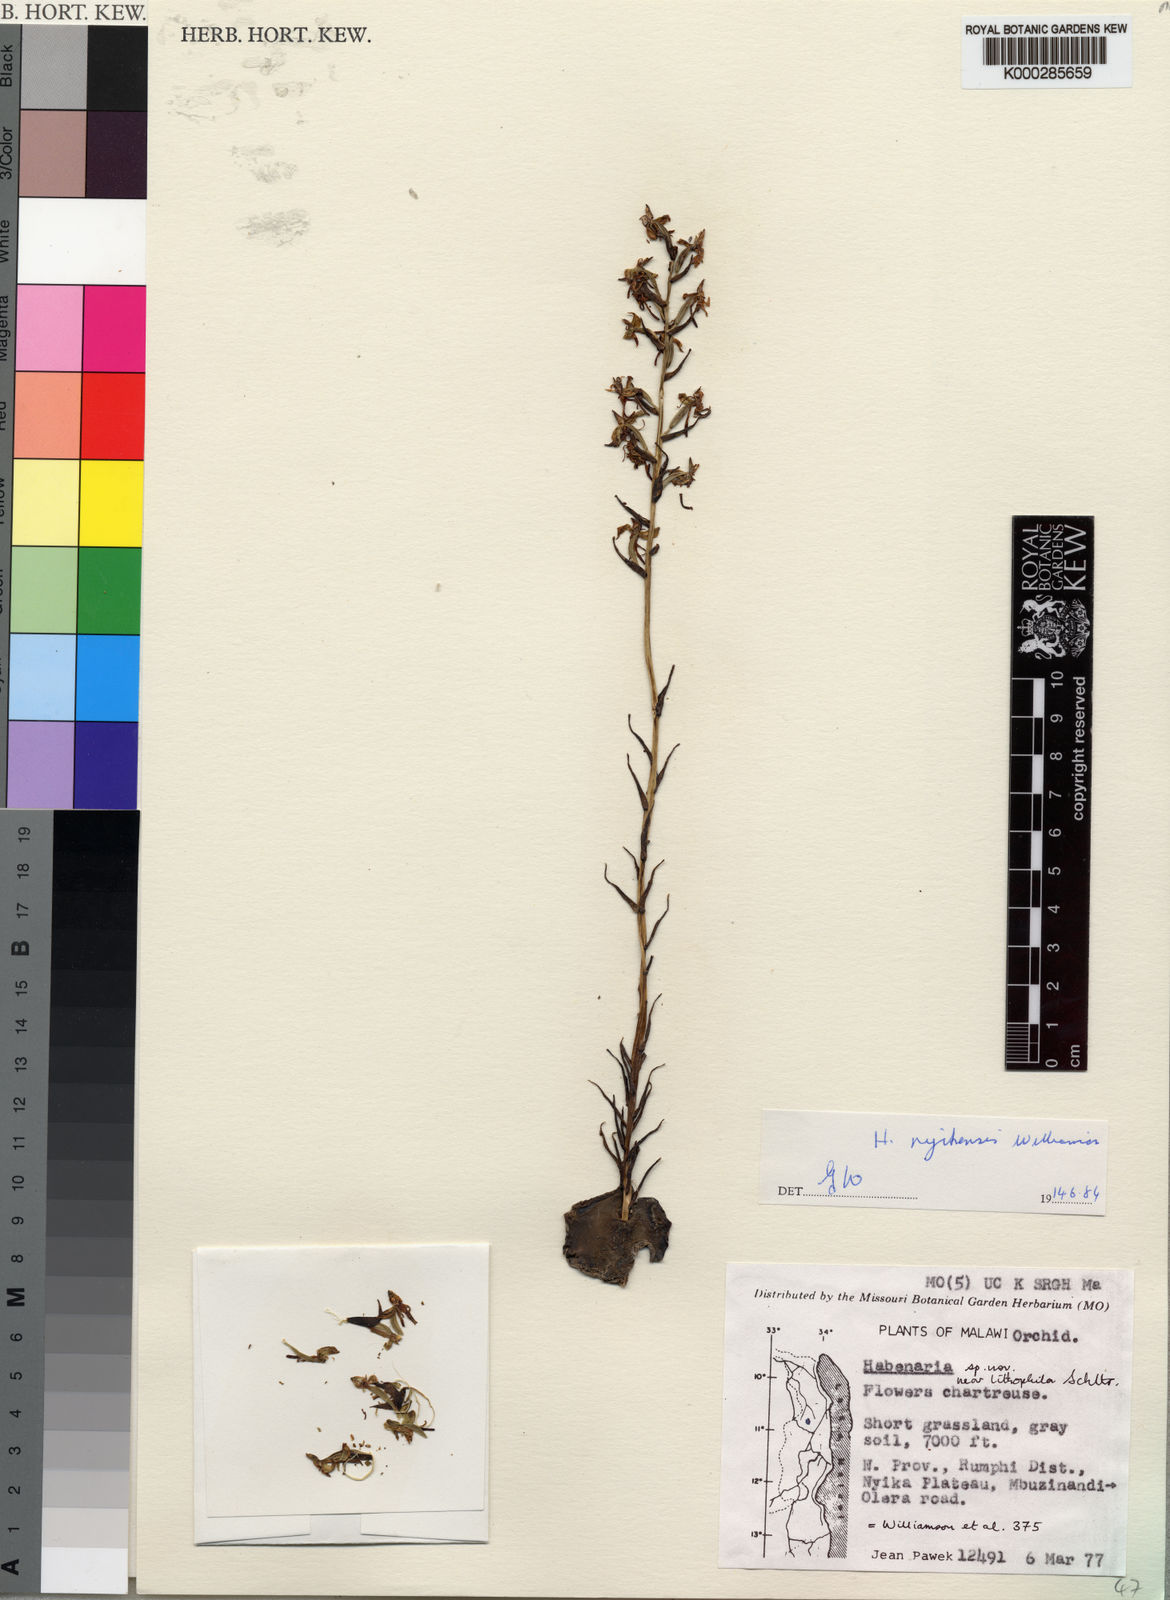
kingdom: Plantae
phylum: Tracheophyta
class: Liliopsida
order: Asparagales
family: Orchidaceae
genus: Habenaria
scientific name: Habenaria nyikensis
